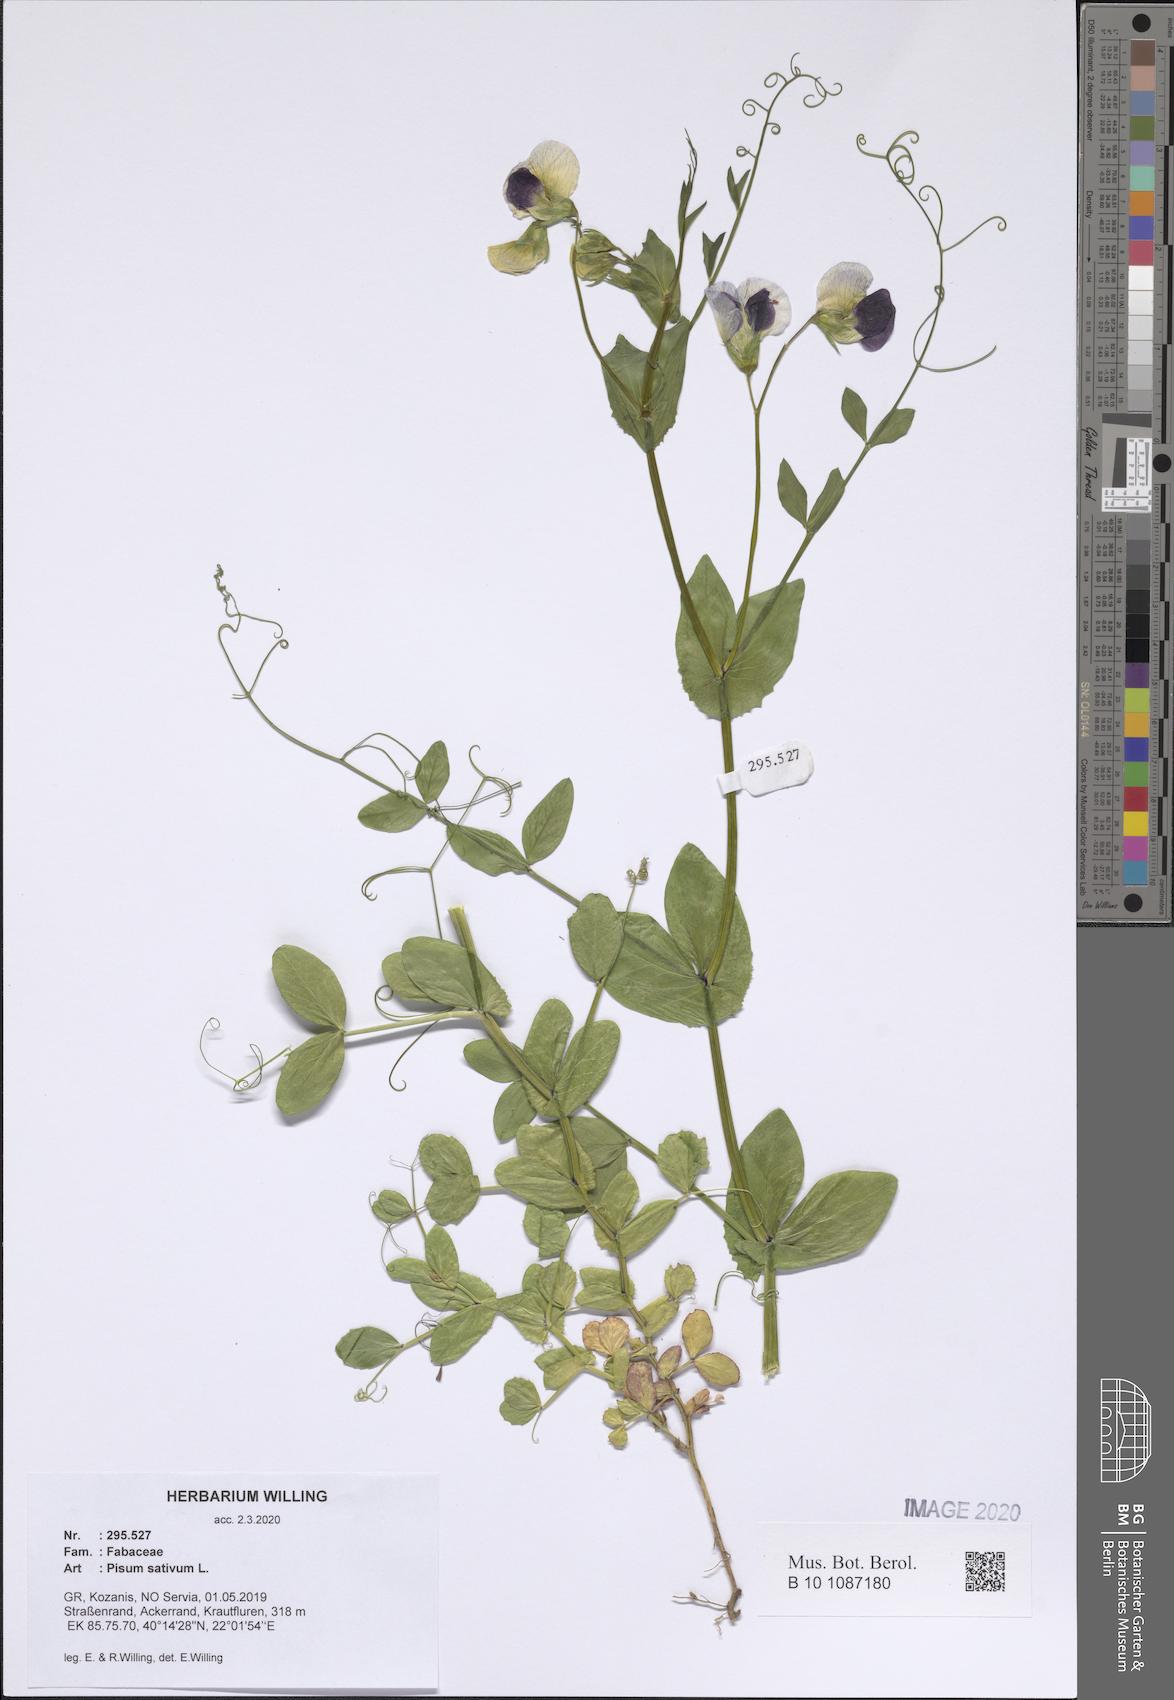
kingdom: Plantae
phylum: Tracheophyta
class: Magnoliopsida
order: Fabales
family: Fabaceae
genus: Lathyrus
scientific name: Lathyrus oleraceus
